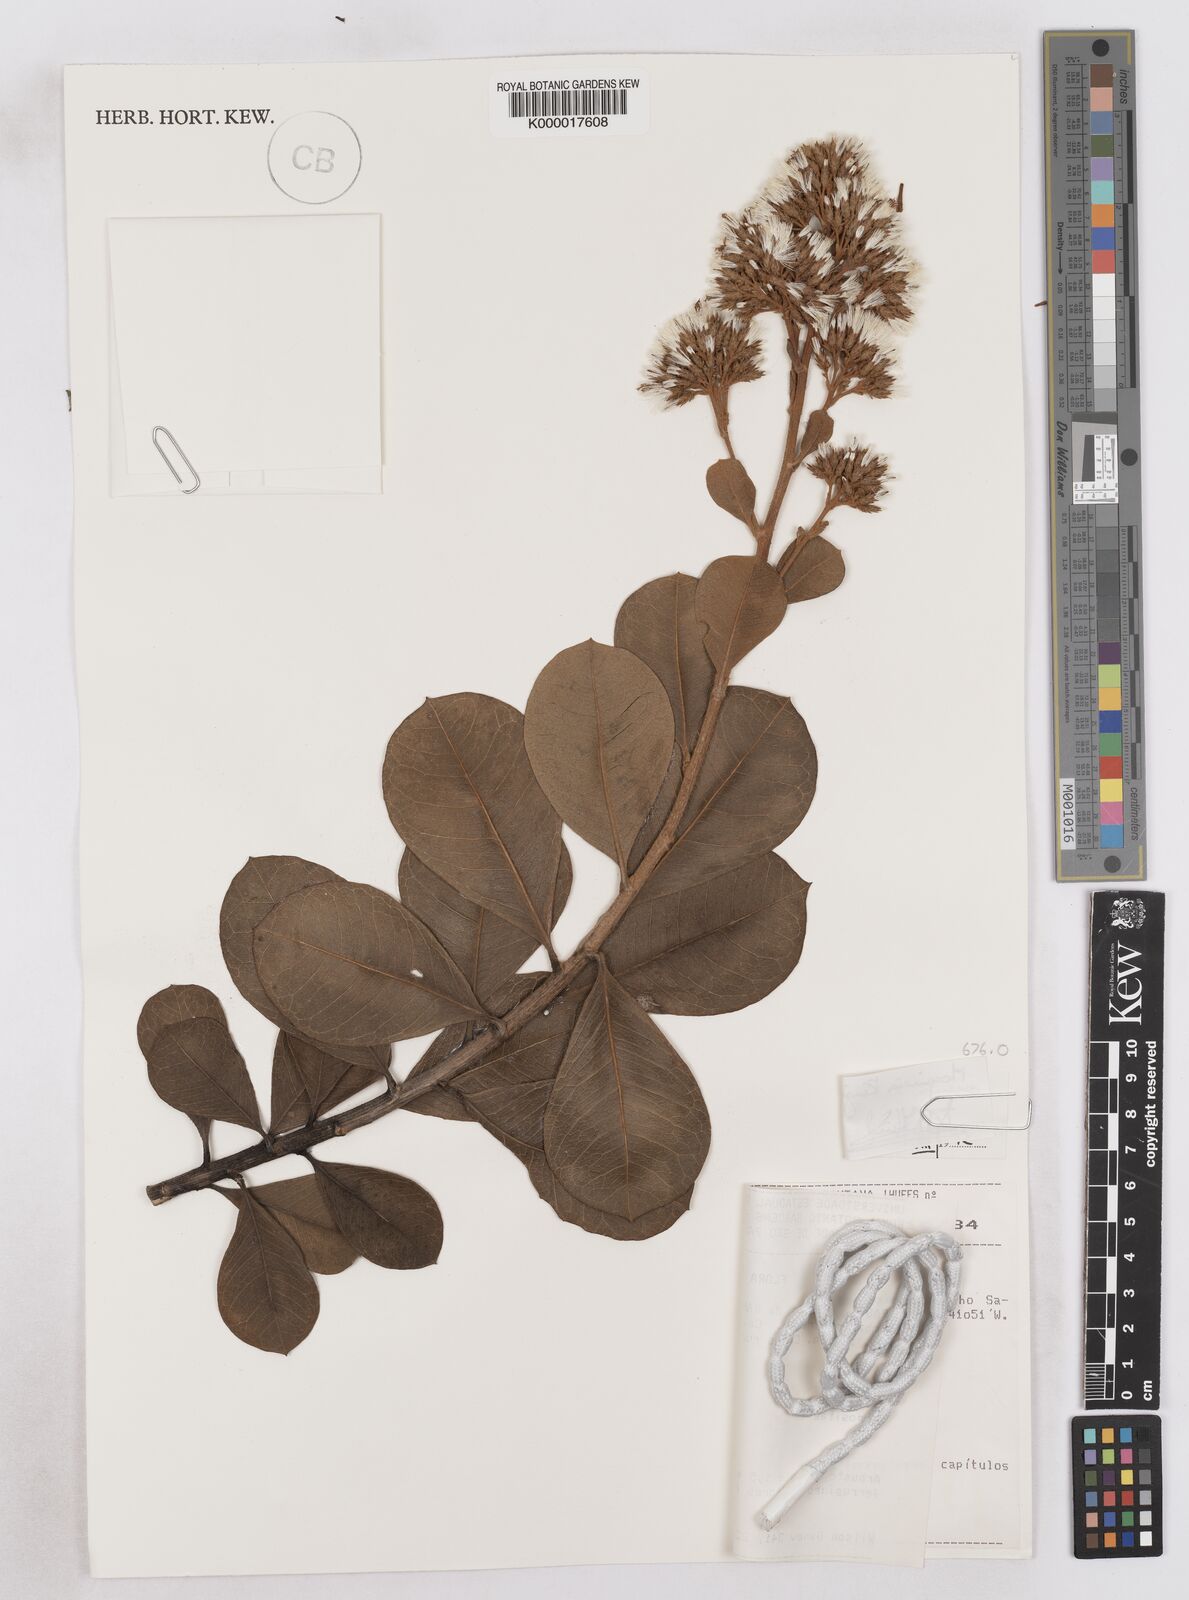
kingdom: Plantae
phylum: Tracheophyta
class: Magnoliopsida
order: Asterales
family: Asteraceae
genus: Pseudostifftia
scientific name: Pseudostifftia kingii
